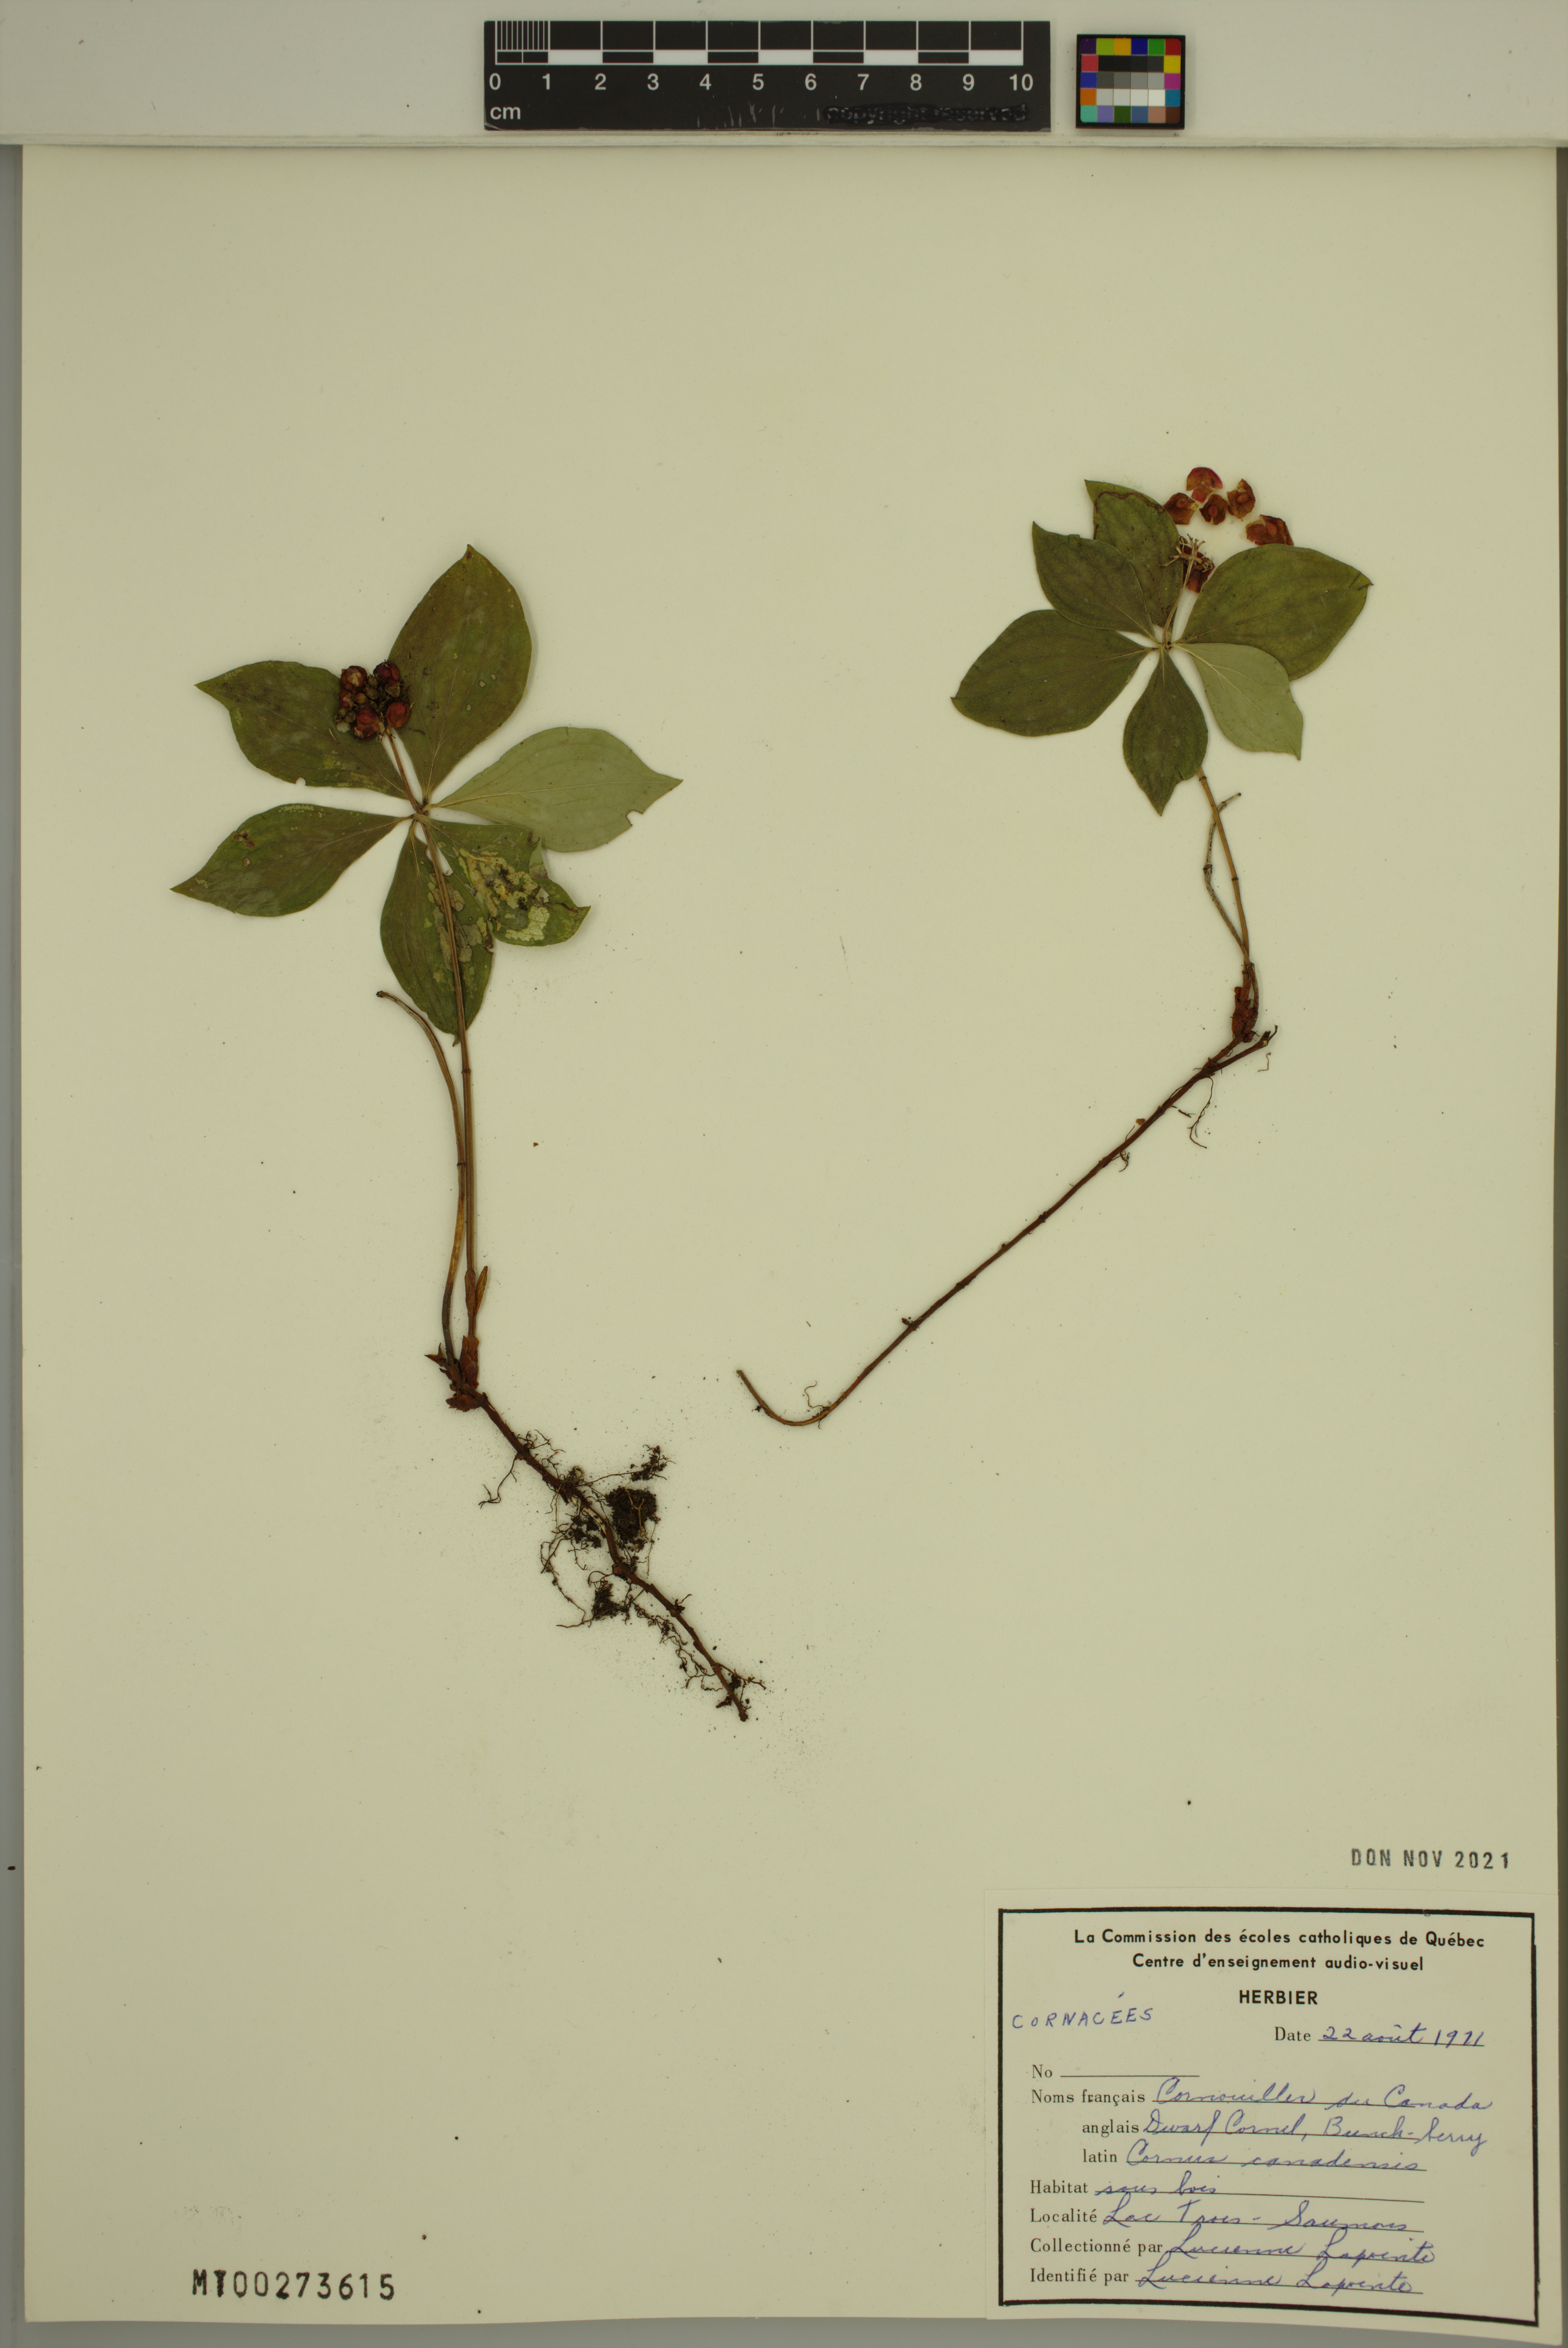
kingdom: Plantae
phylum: Tracheophyta
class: Magnoliopsida
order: Cornales
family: Cornaceae
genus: Cornus
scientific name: Cornus canadensis
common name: Creeping dogwood
